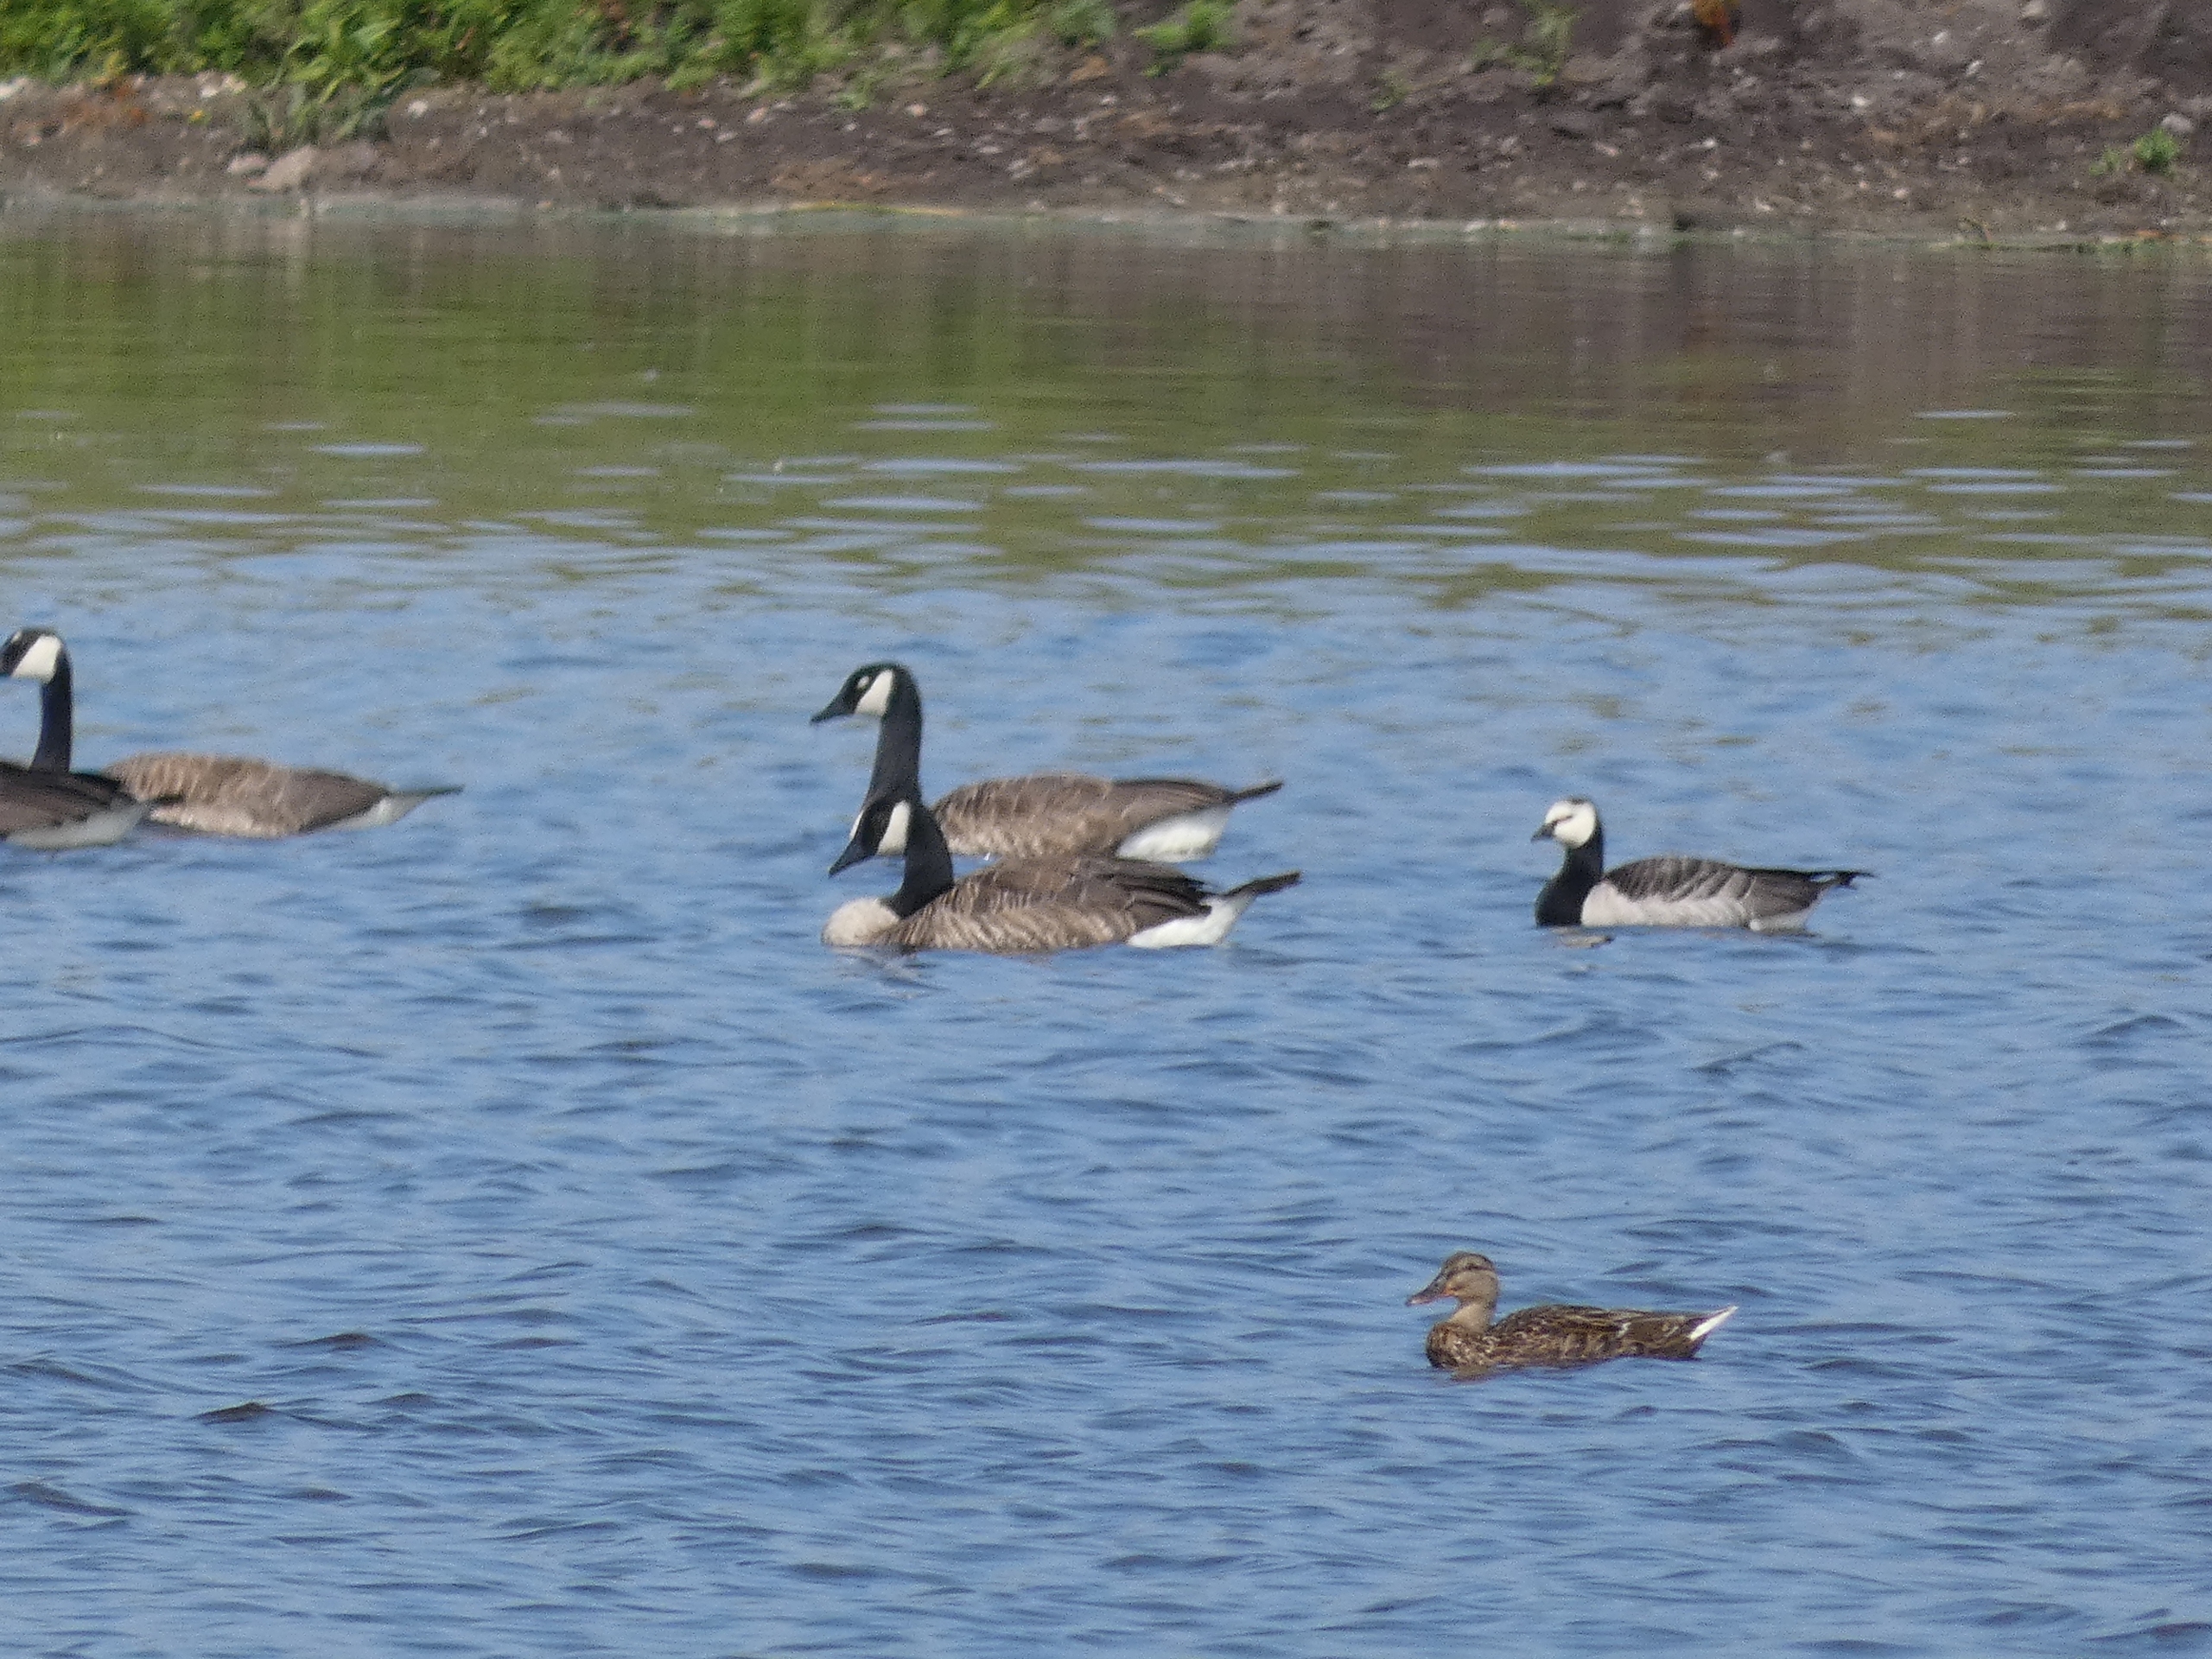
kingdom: Animalia
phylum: Chordata
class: Aves
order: Anseriformes
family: Anatidae
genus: Anas
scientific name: Anas platyrhynchos
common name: Gråand
